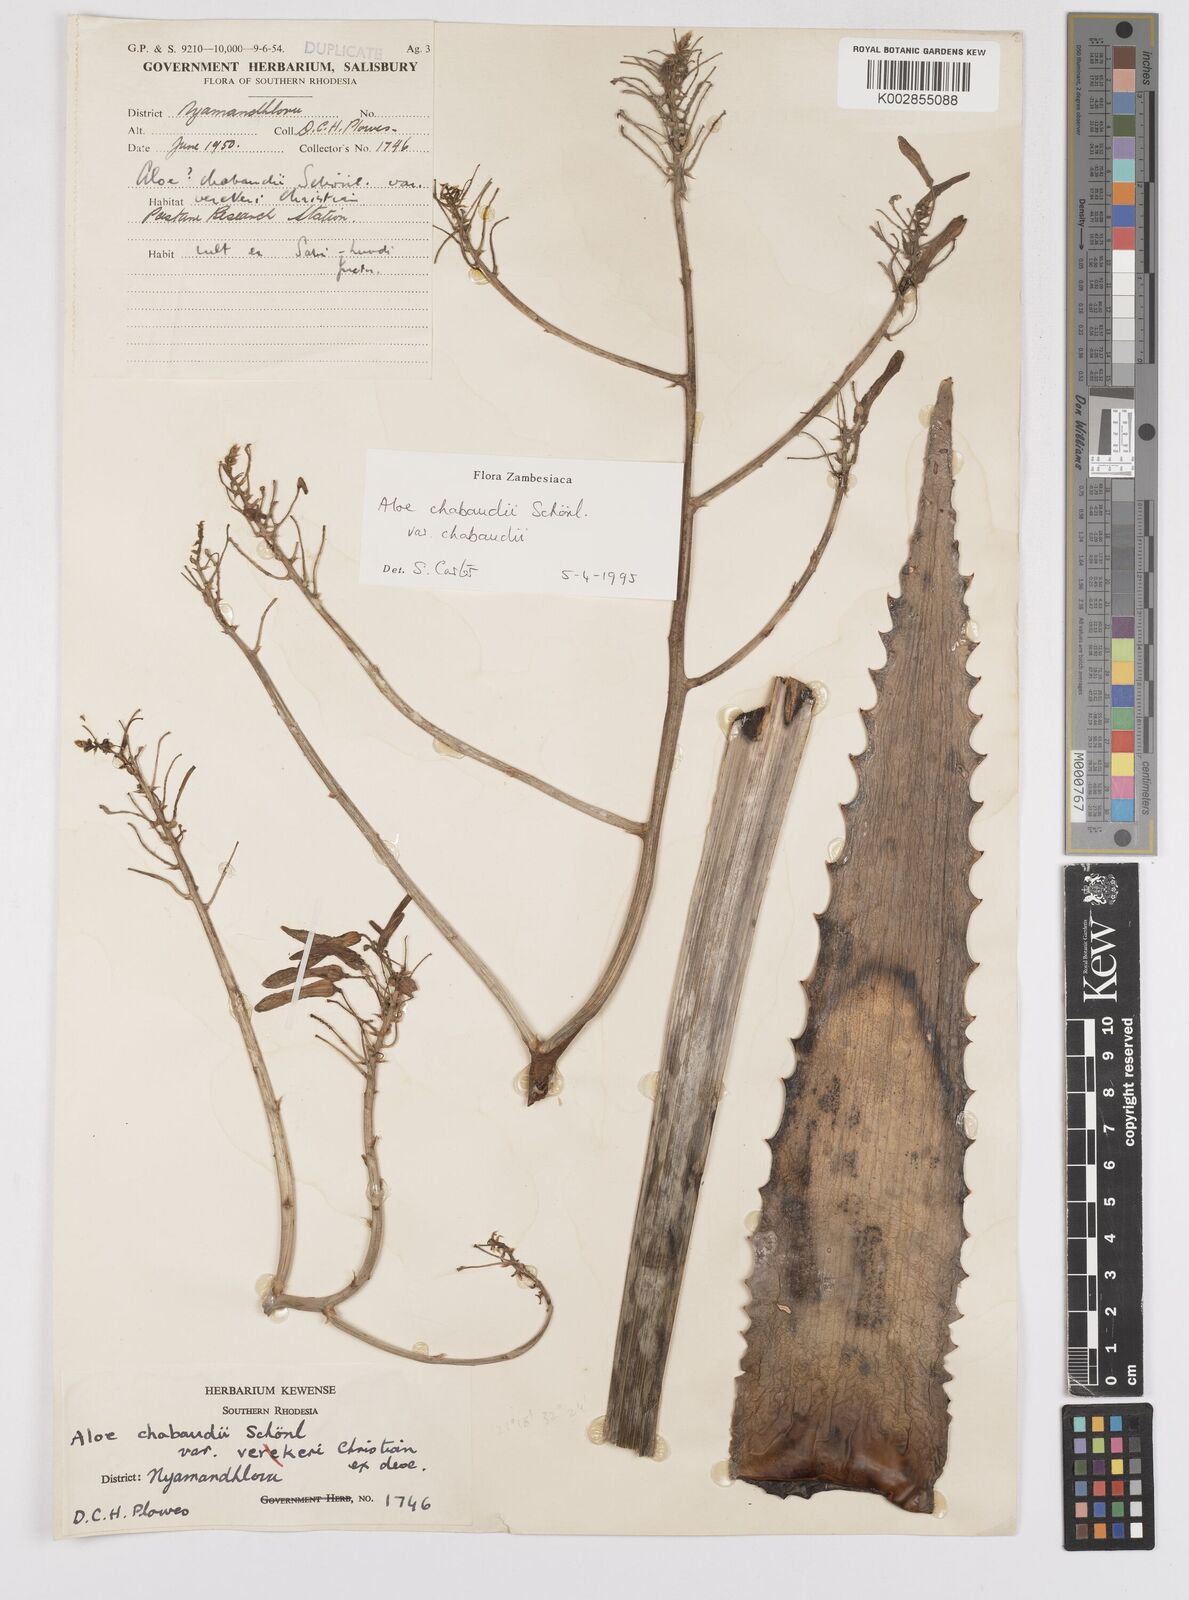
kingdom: Plantae
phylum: Tracheophyta
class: Liliopsida
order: Asparagales
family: Asphodelaceae
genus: Aloe
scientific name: Aloe
